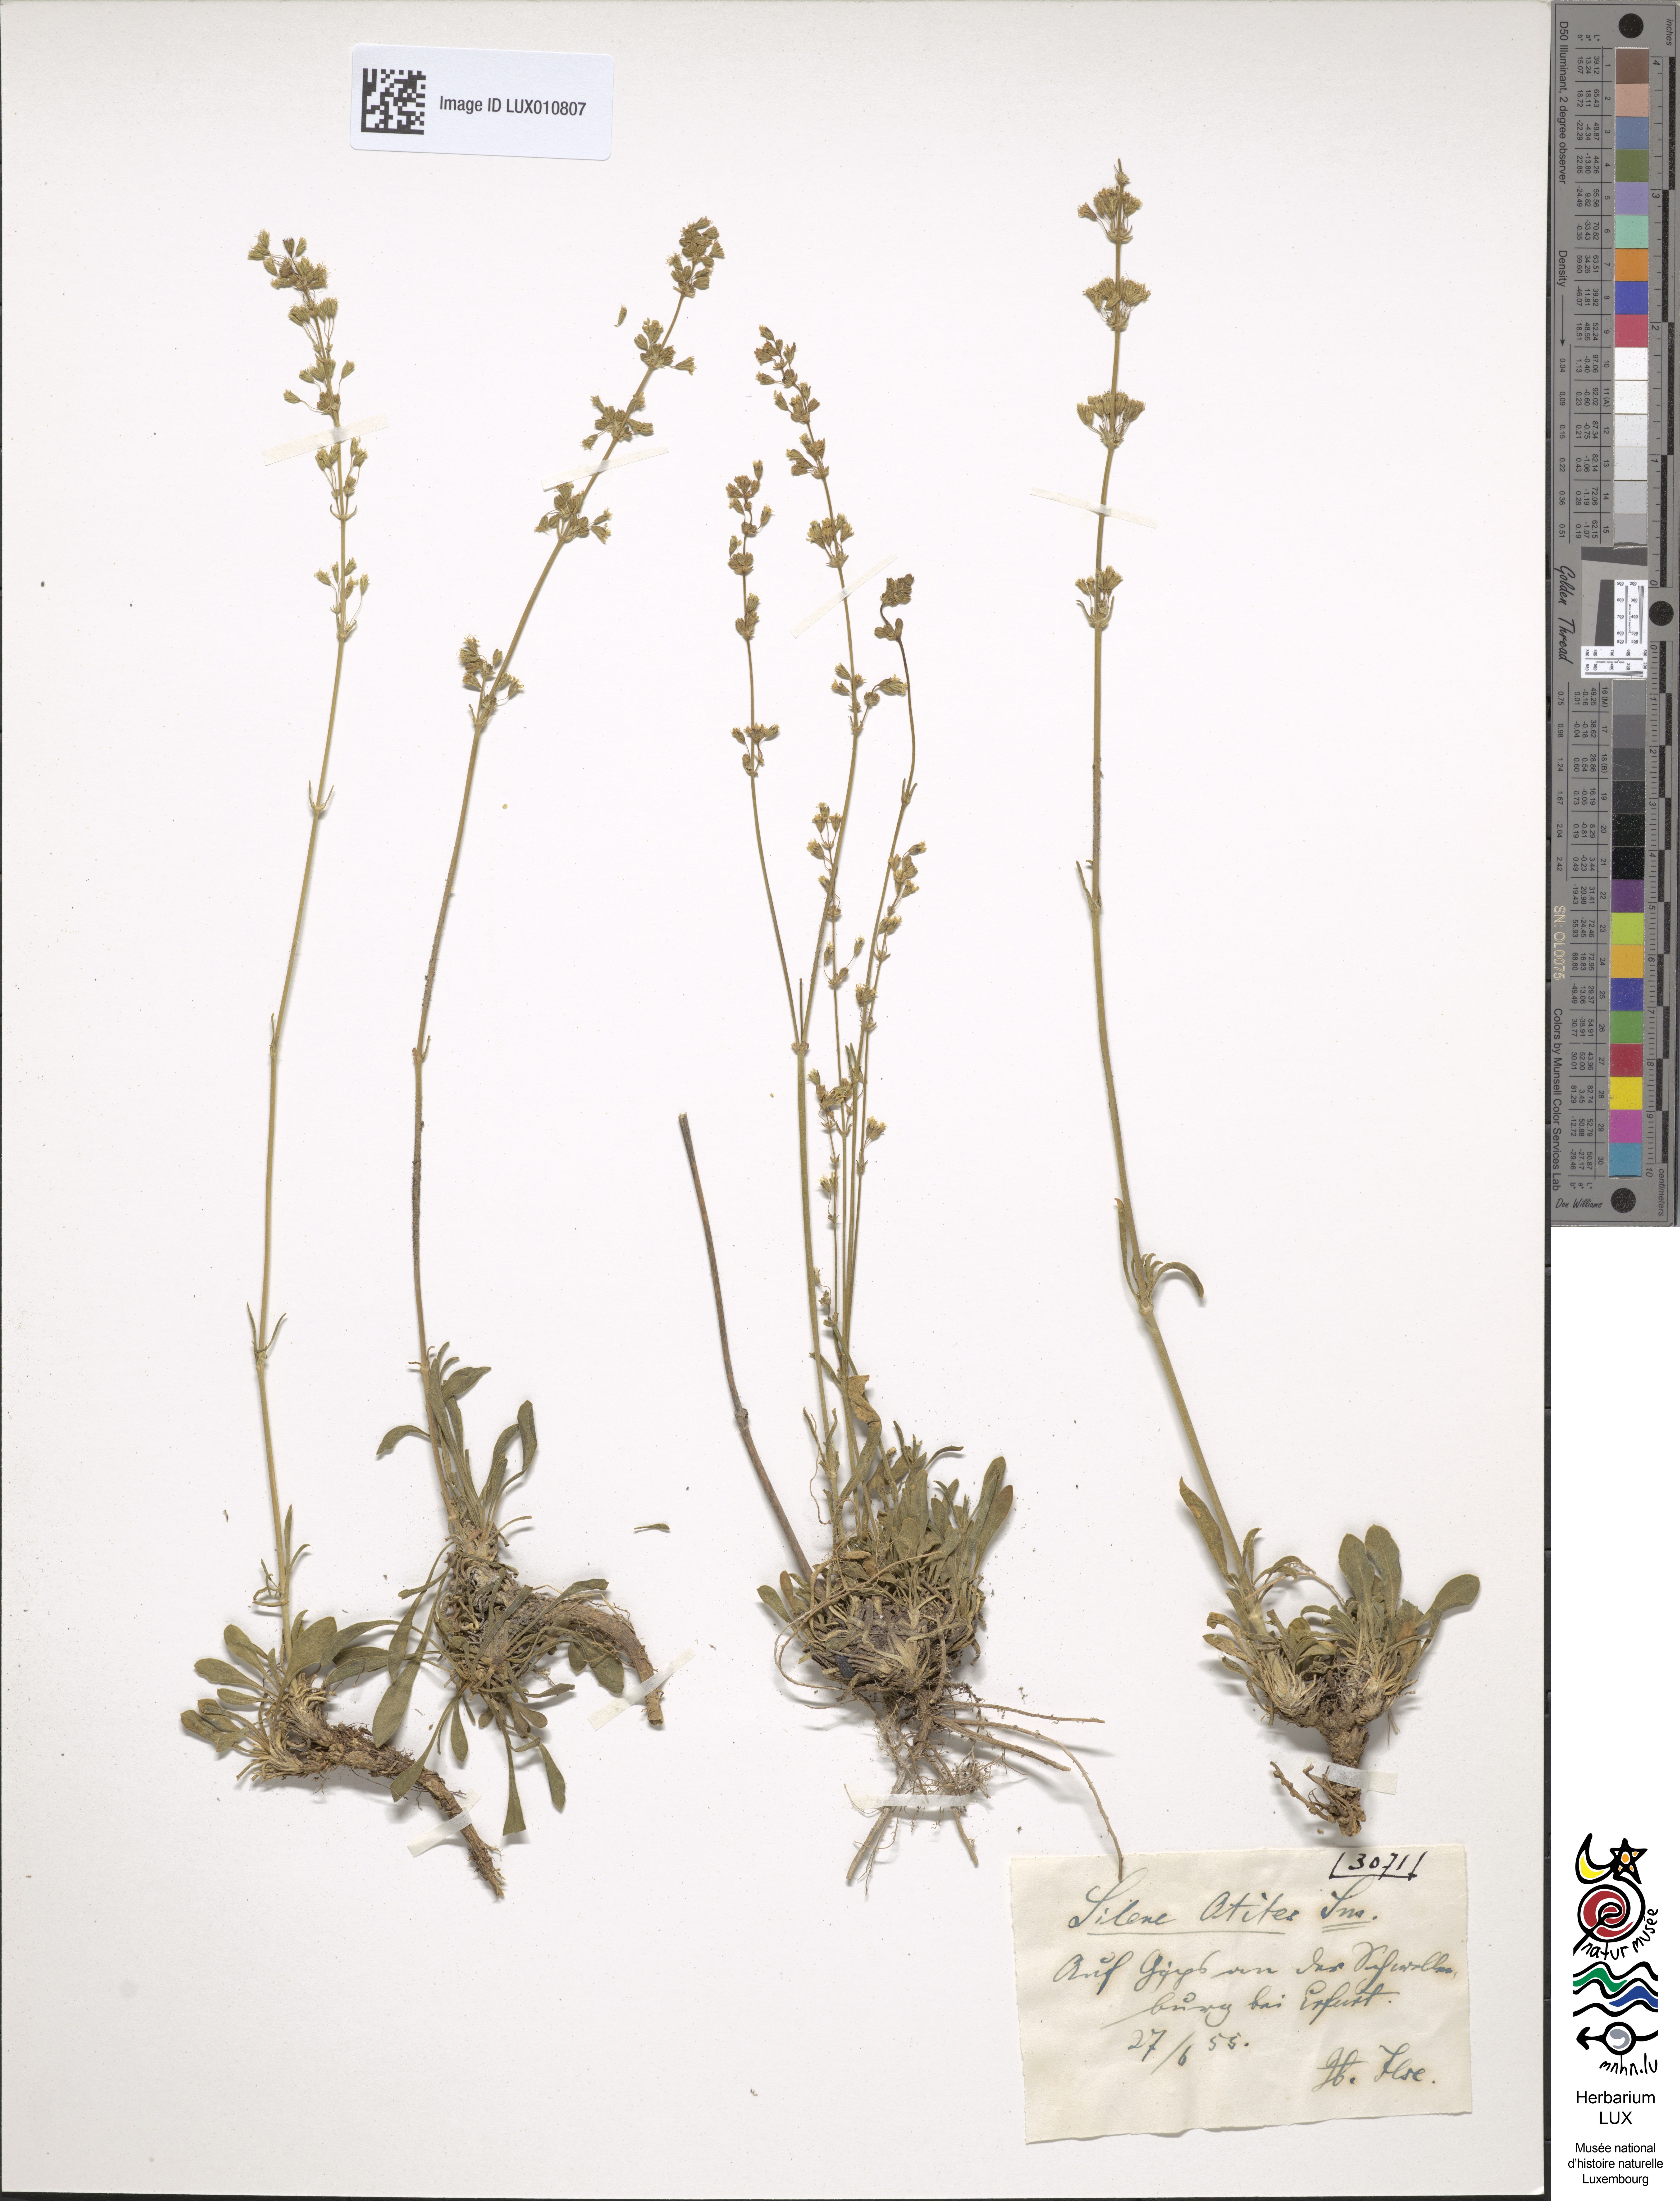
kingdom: Plantae
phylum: Tracheophyta
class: Magnoliopsida
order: Caryophyllales
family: Caryophyllaceae
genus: Silene
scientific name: Silene otites
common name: Spanish catchfly
